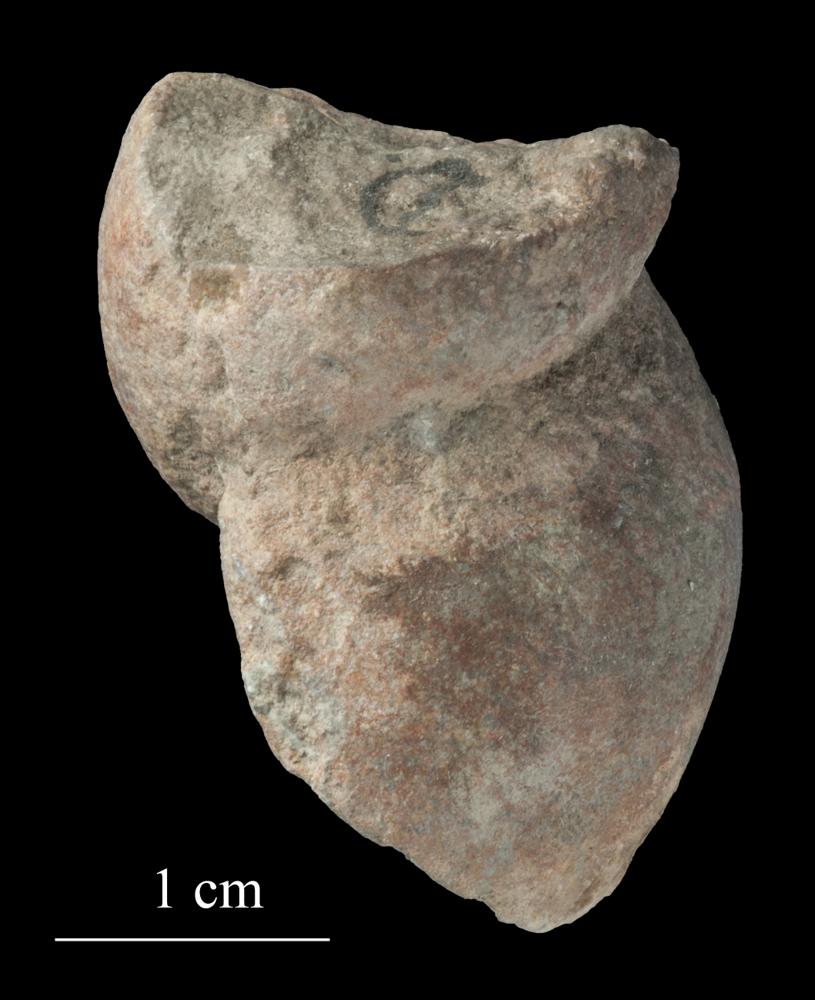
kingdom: Animalia
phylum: Mollusca
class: Gastropoda
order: Pleurotomariida
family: Phymatopleuridae
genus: Worthenia
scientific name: Worthenia
